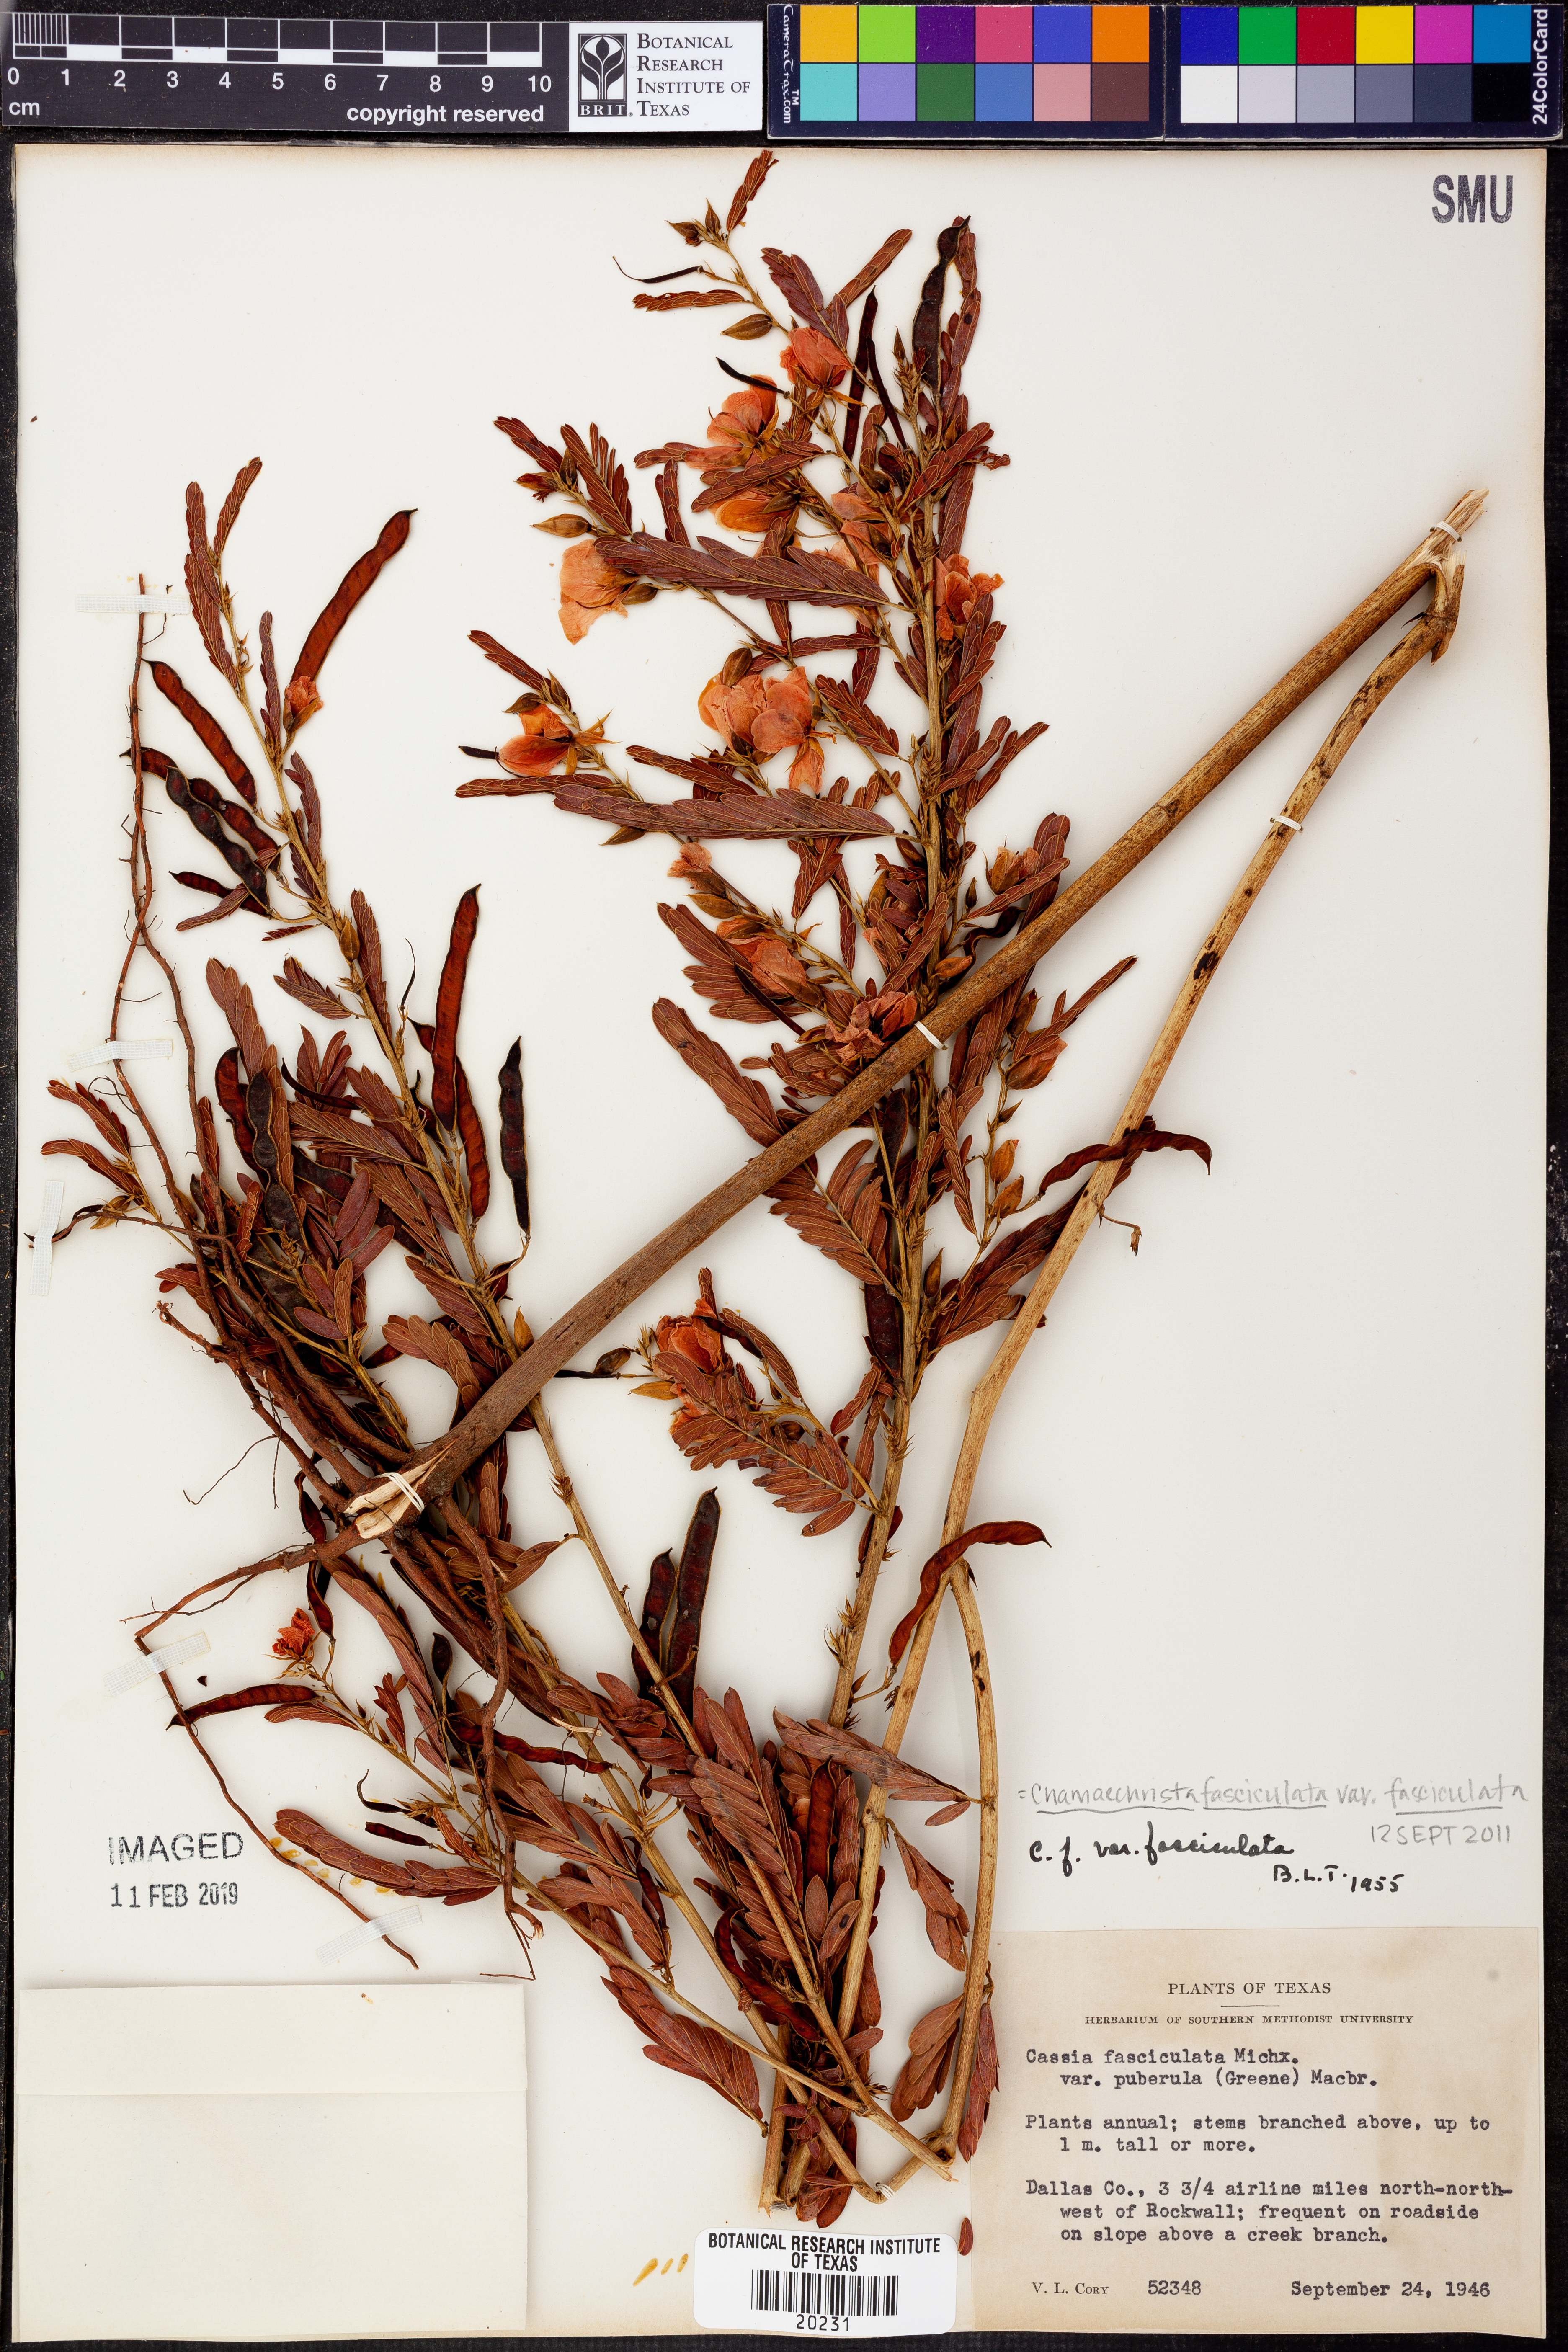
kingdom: Plantae
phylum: Tracheophyta
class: Magnoliopsida
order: Fabales
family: Fabaceae
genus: Chamaecrista
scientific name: Chamaecrista fasciculata
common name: Golden cassia
